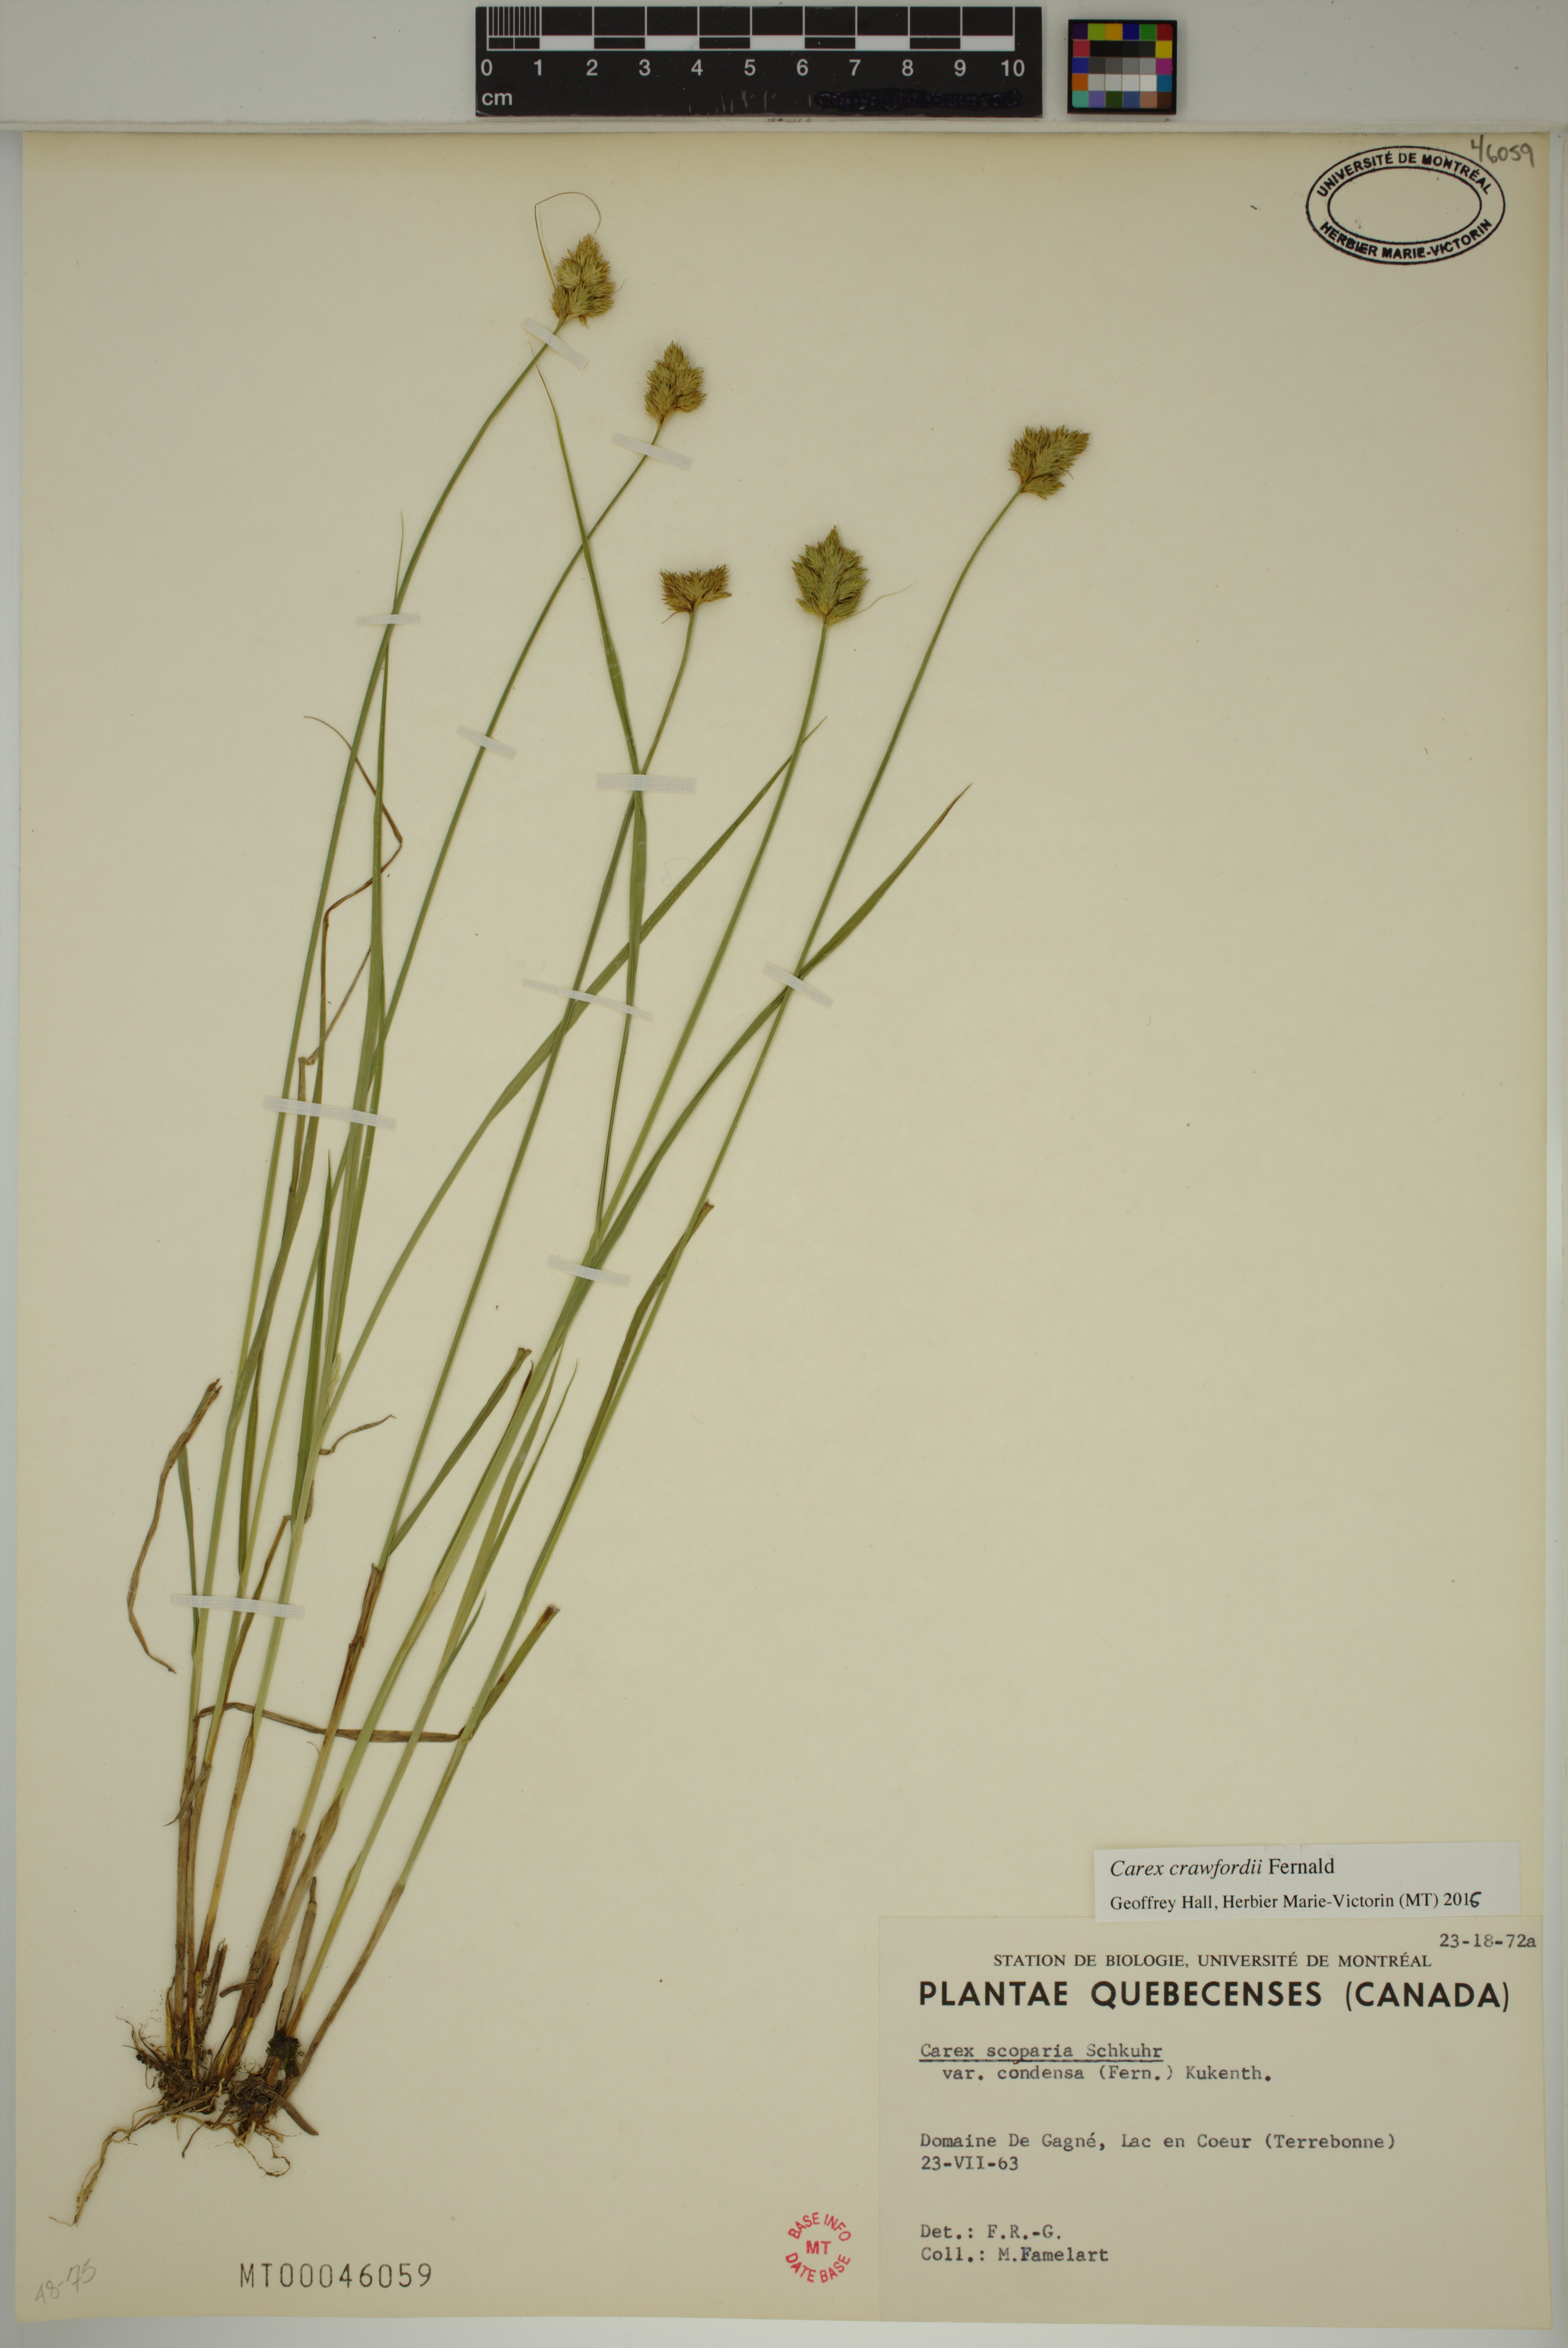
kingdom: Plantae
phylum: Tracheophyta
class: Liliopsida
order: Poales
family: Cyperaceae
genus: Carex
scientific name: Carex crawfordii
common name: Crawford's sedge
